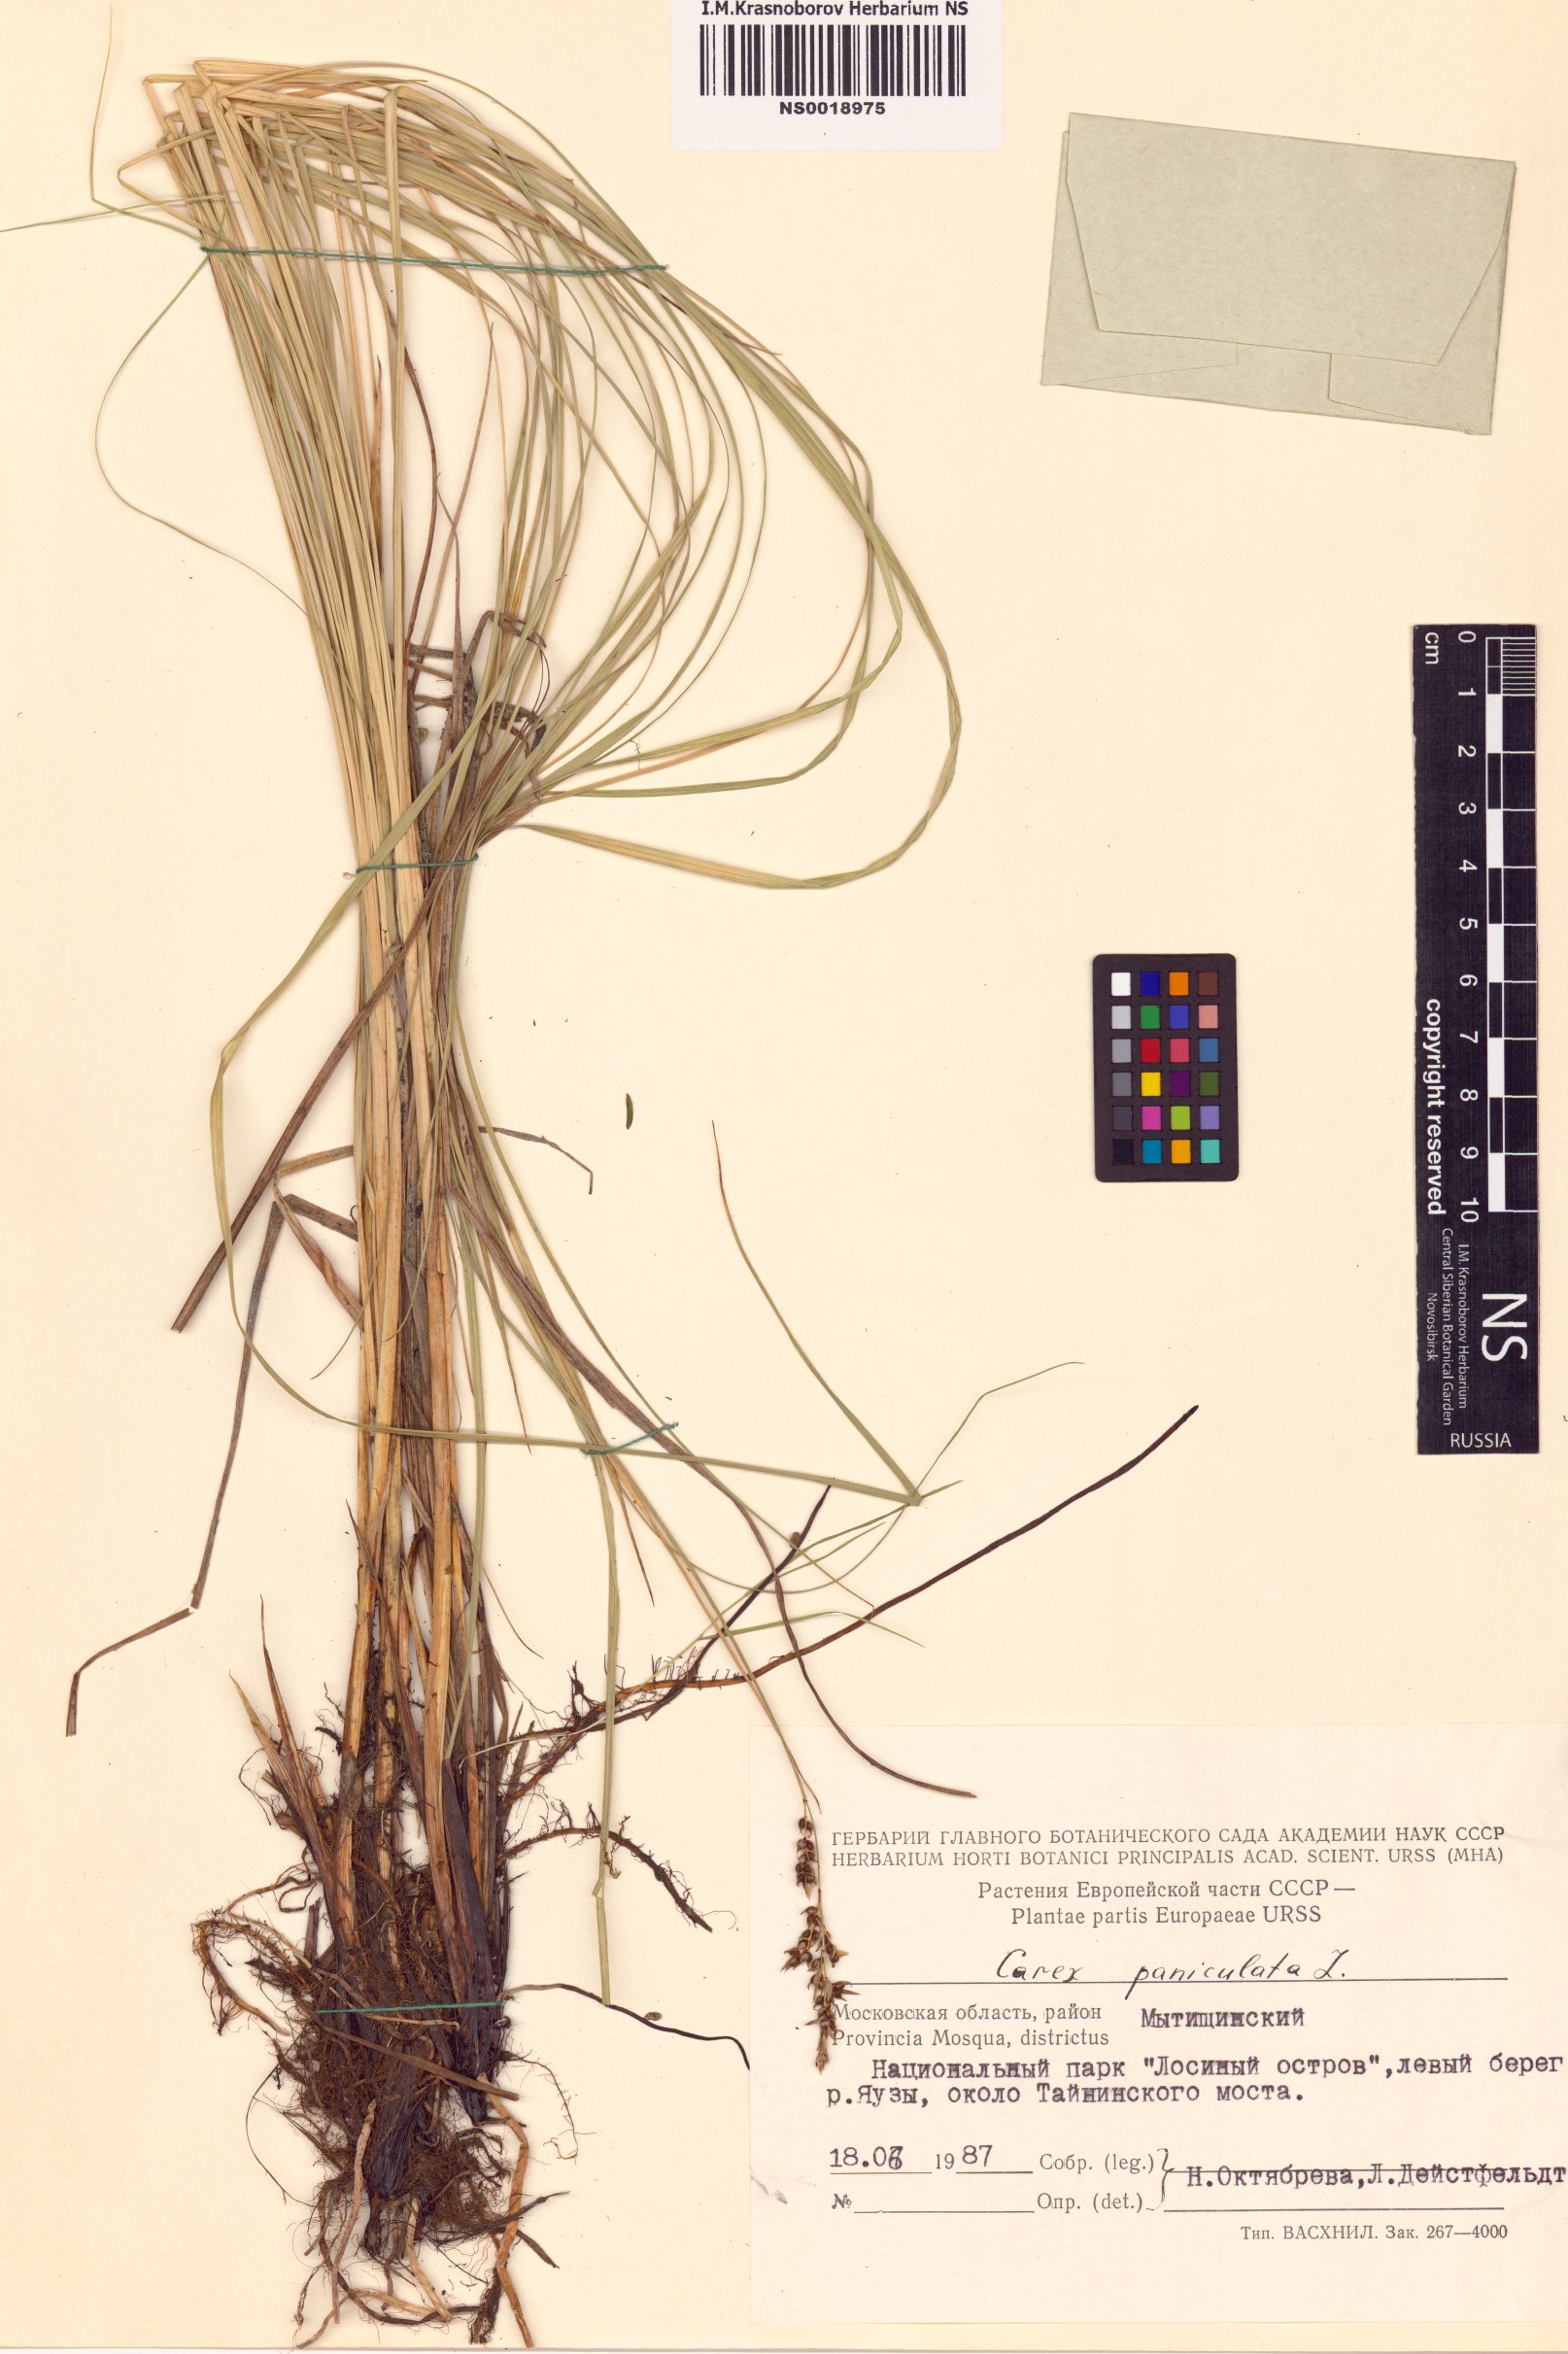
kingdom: Plantae
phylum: Tracheophyta
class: Liliopsida
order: Poales
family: Cyperaceae
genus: Carex
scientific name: Carex paniculata
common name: Greater tussock-sedge
